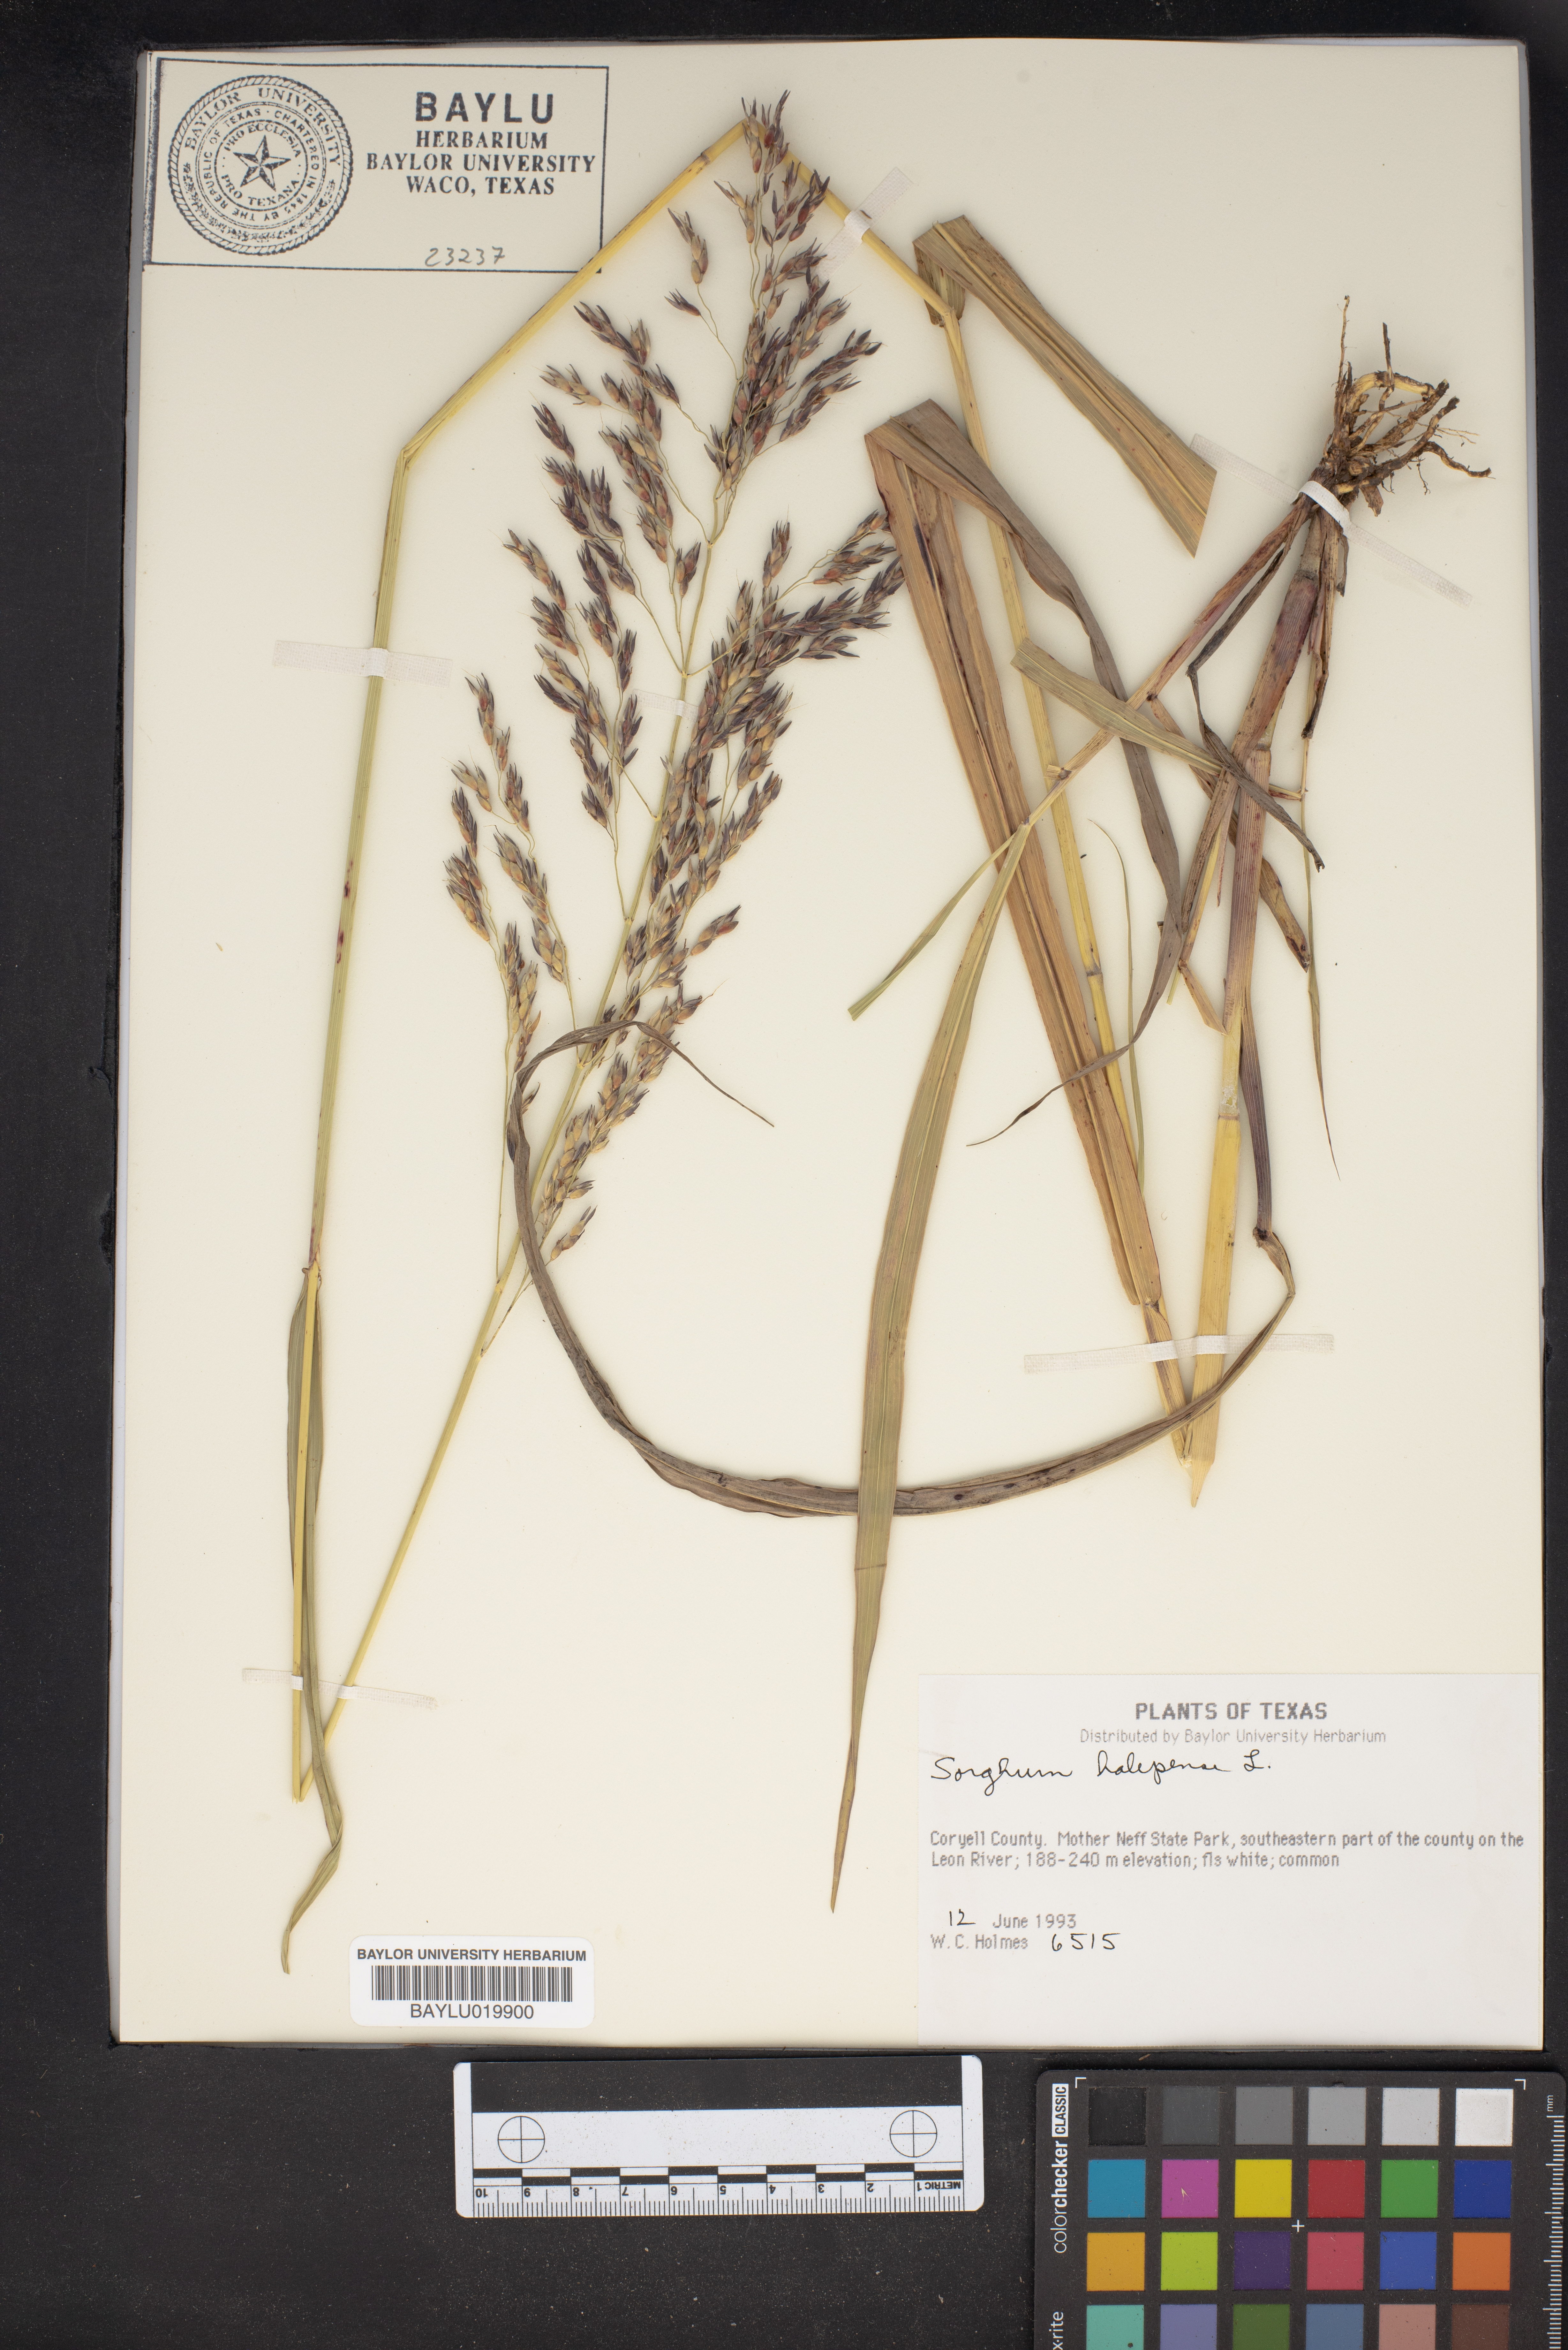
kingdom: Plantae
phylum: Tracheophyta
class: Liliopsida
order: Poales
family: Poaceae
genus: Sorghum
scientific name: Sorghum halepense
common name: Johnson-grass
